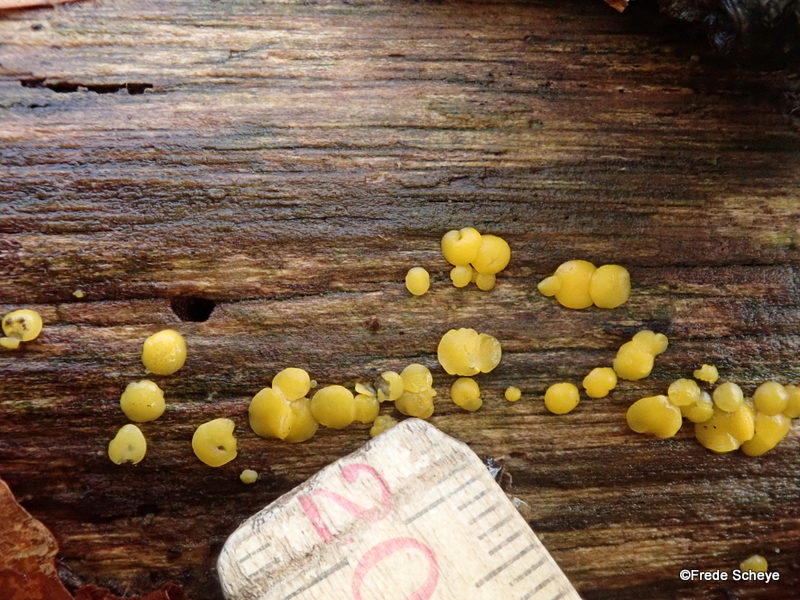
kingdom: Fungi
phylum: Ascomycota
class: Leotiomycetes
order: Helotiales
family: Pezizellaceae
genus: Calycina
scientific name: Calycina citrina
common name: almindelig gulskive
